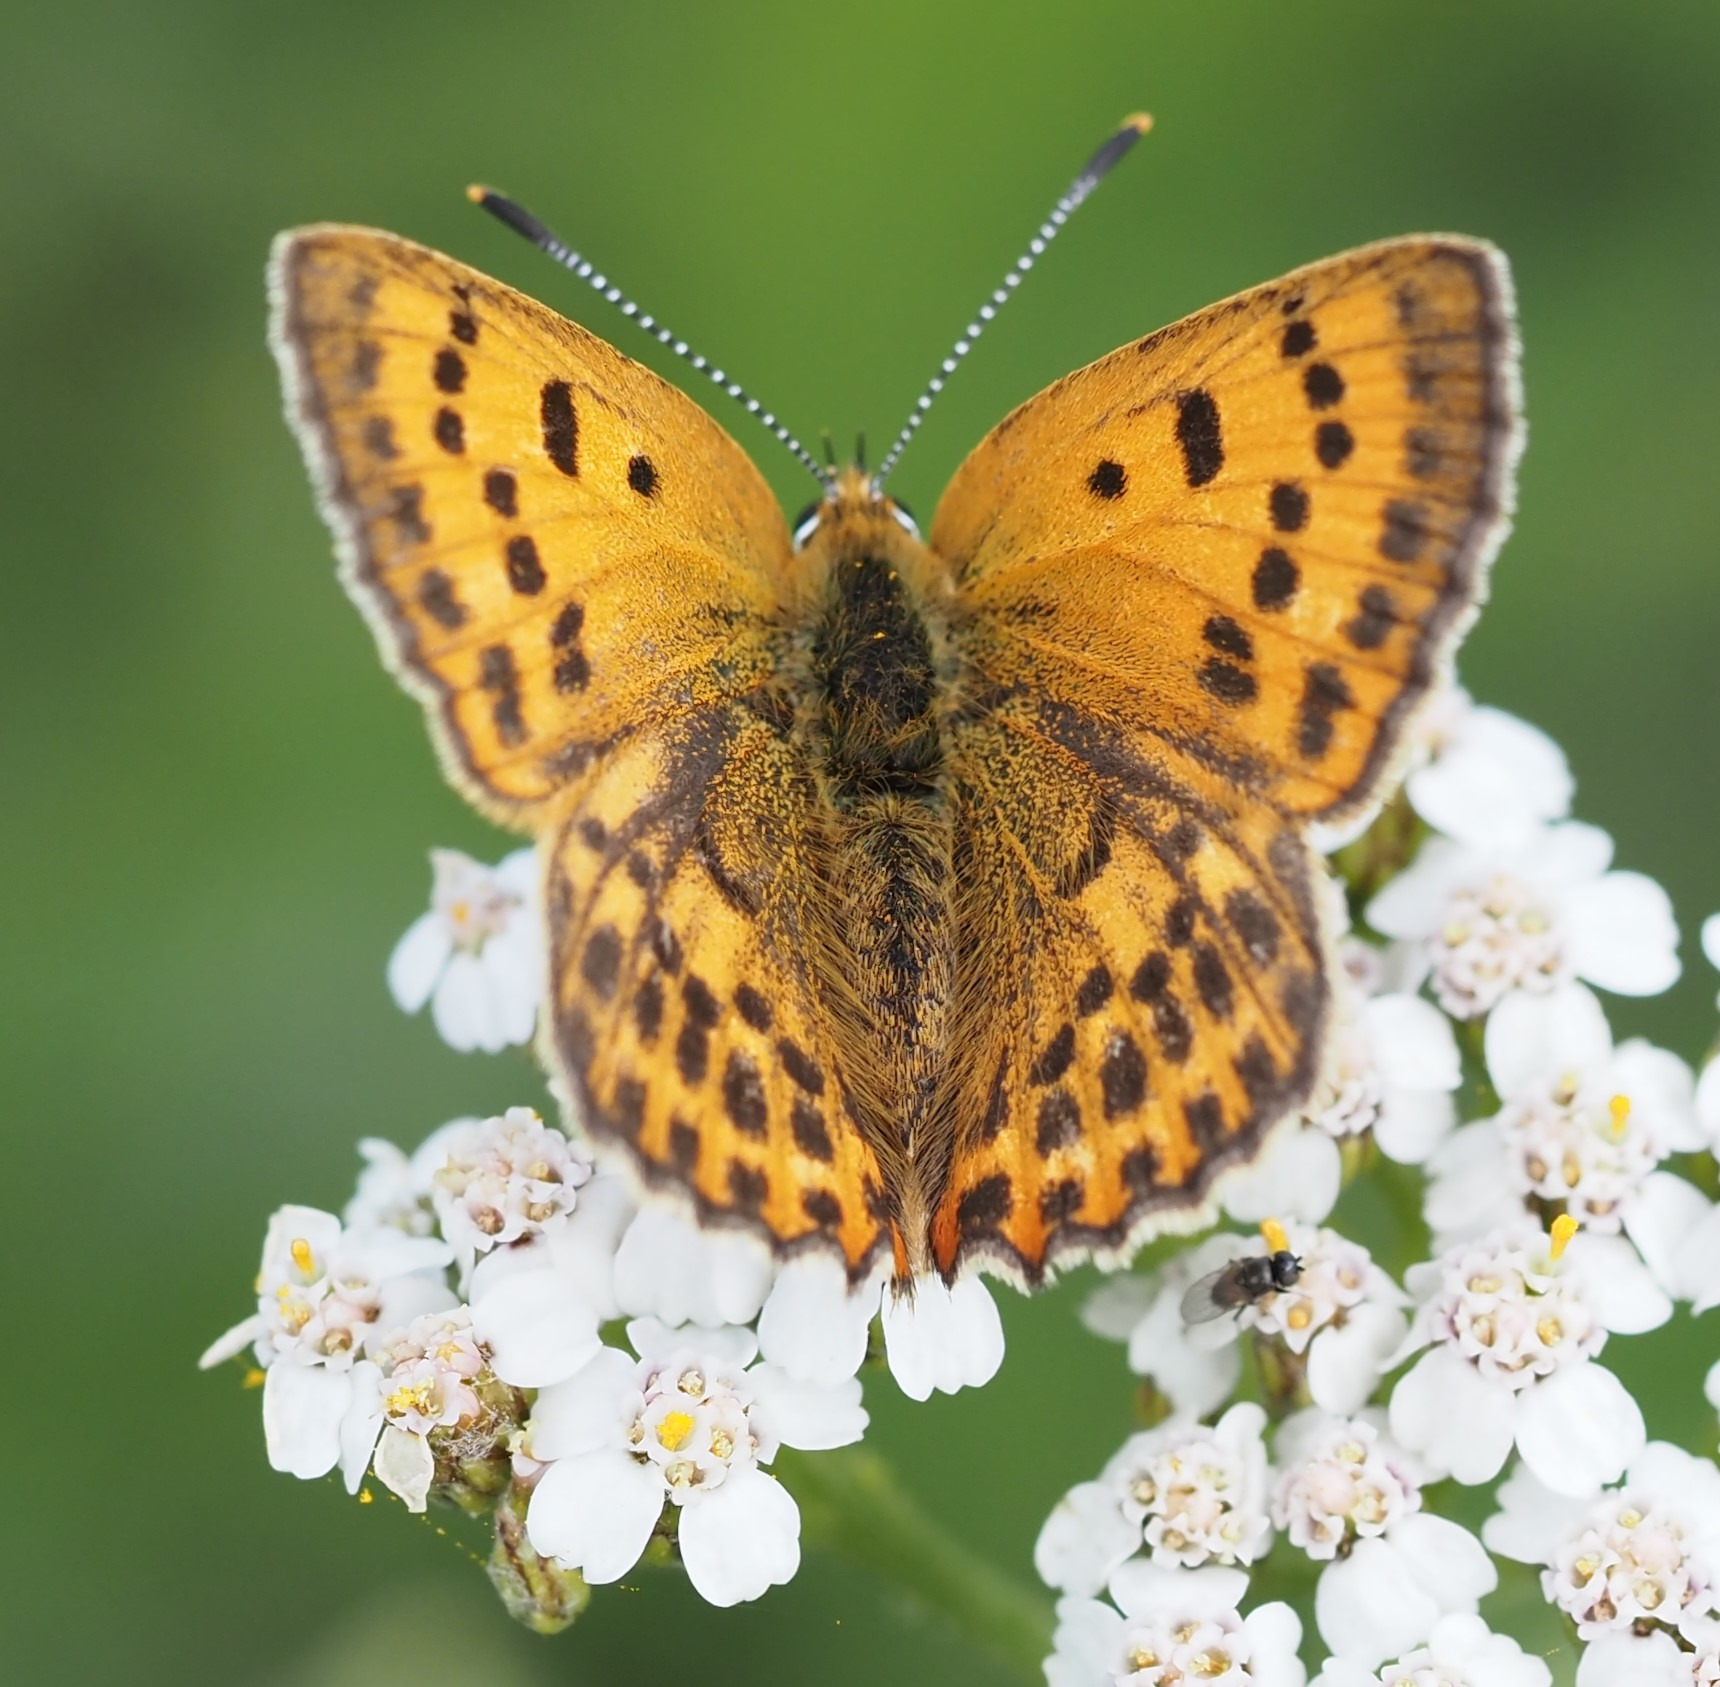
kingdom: Animalia
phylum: Arthropoda
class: Insecta
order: Lepidoptera
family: Lycaenidae
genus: Lycaena
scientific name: Lycaena virgaureae
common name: Dukatsommerfugl
